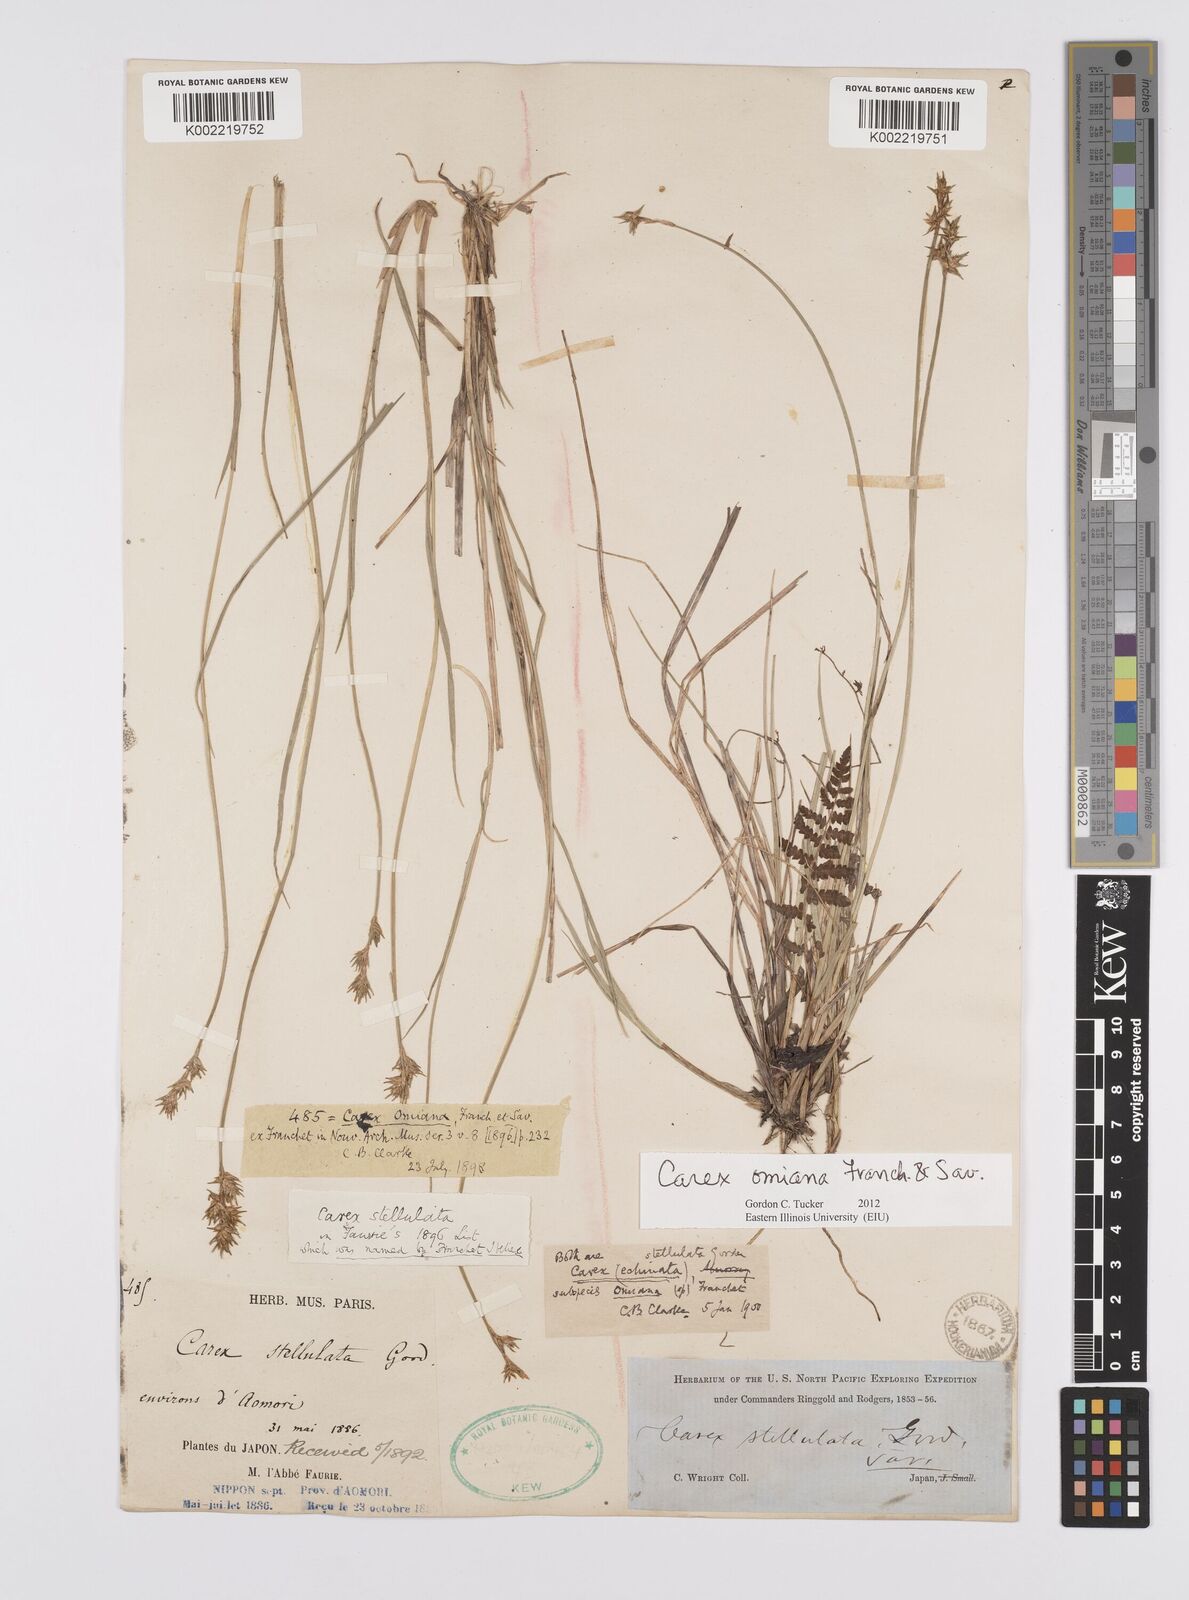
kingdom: Plantae
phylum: Tracheophyta
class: Liliopsida
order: Poales
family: Cyperaceae
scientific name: Cyperaceae
